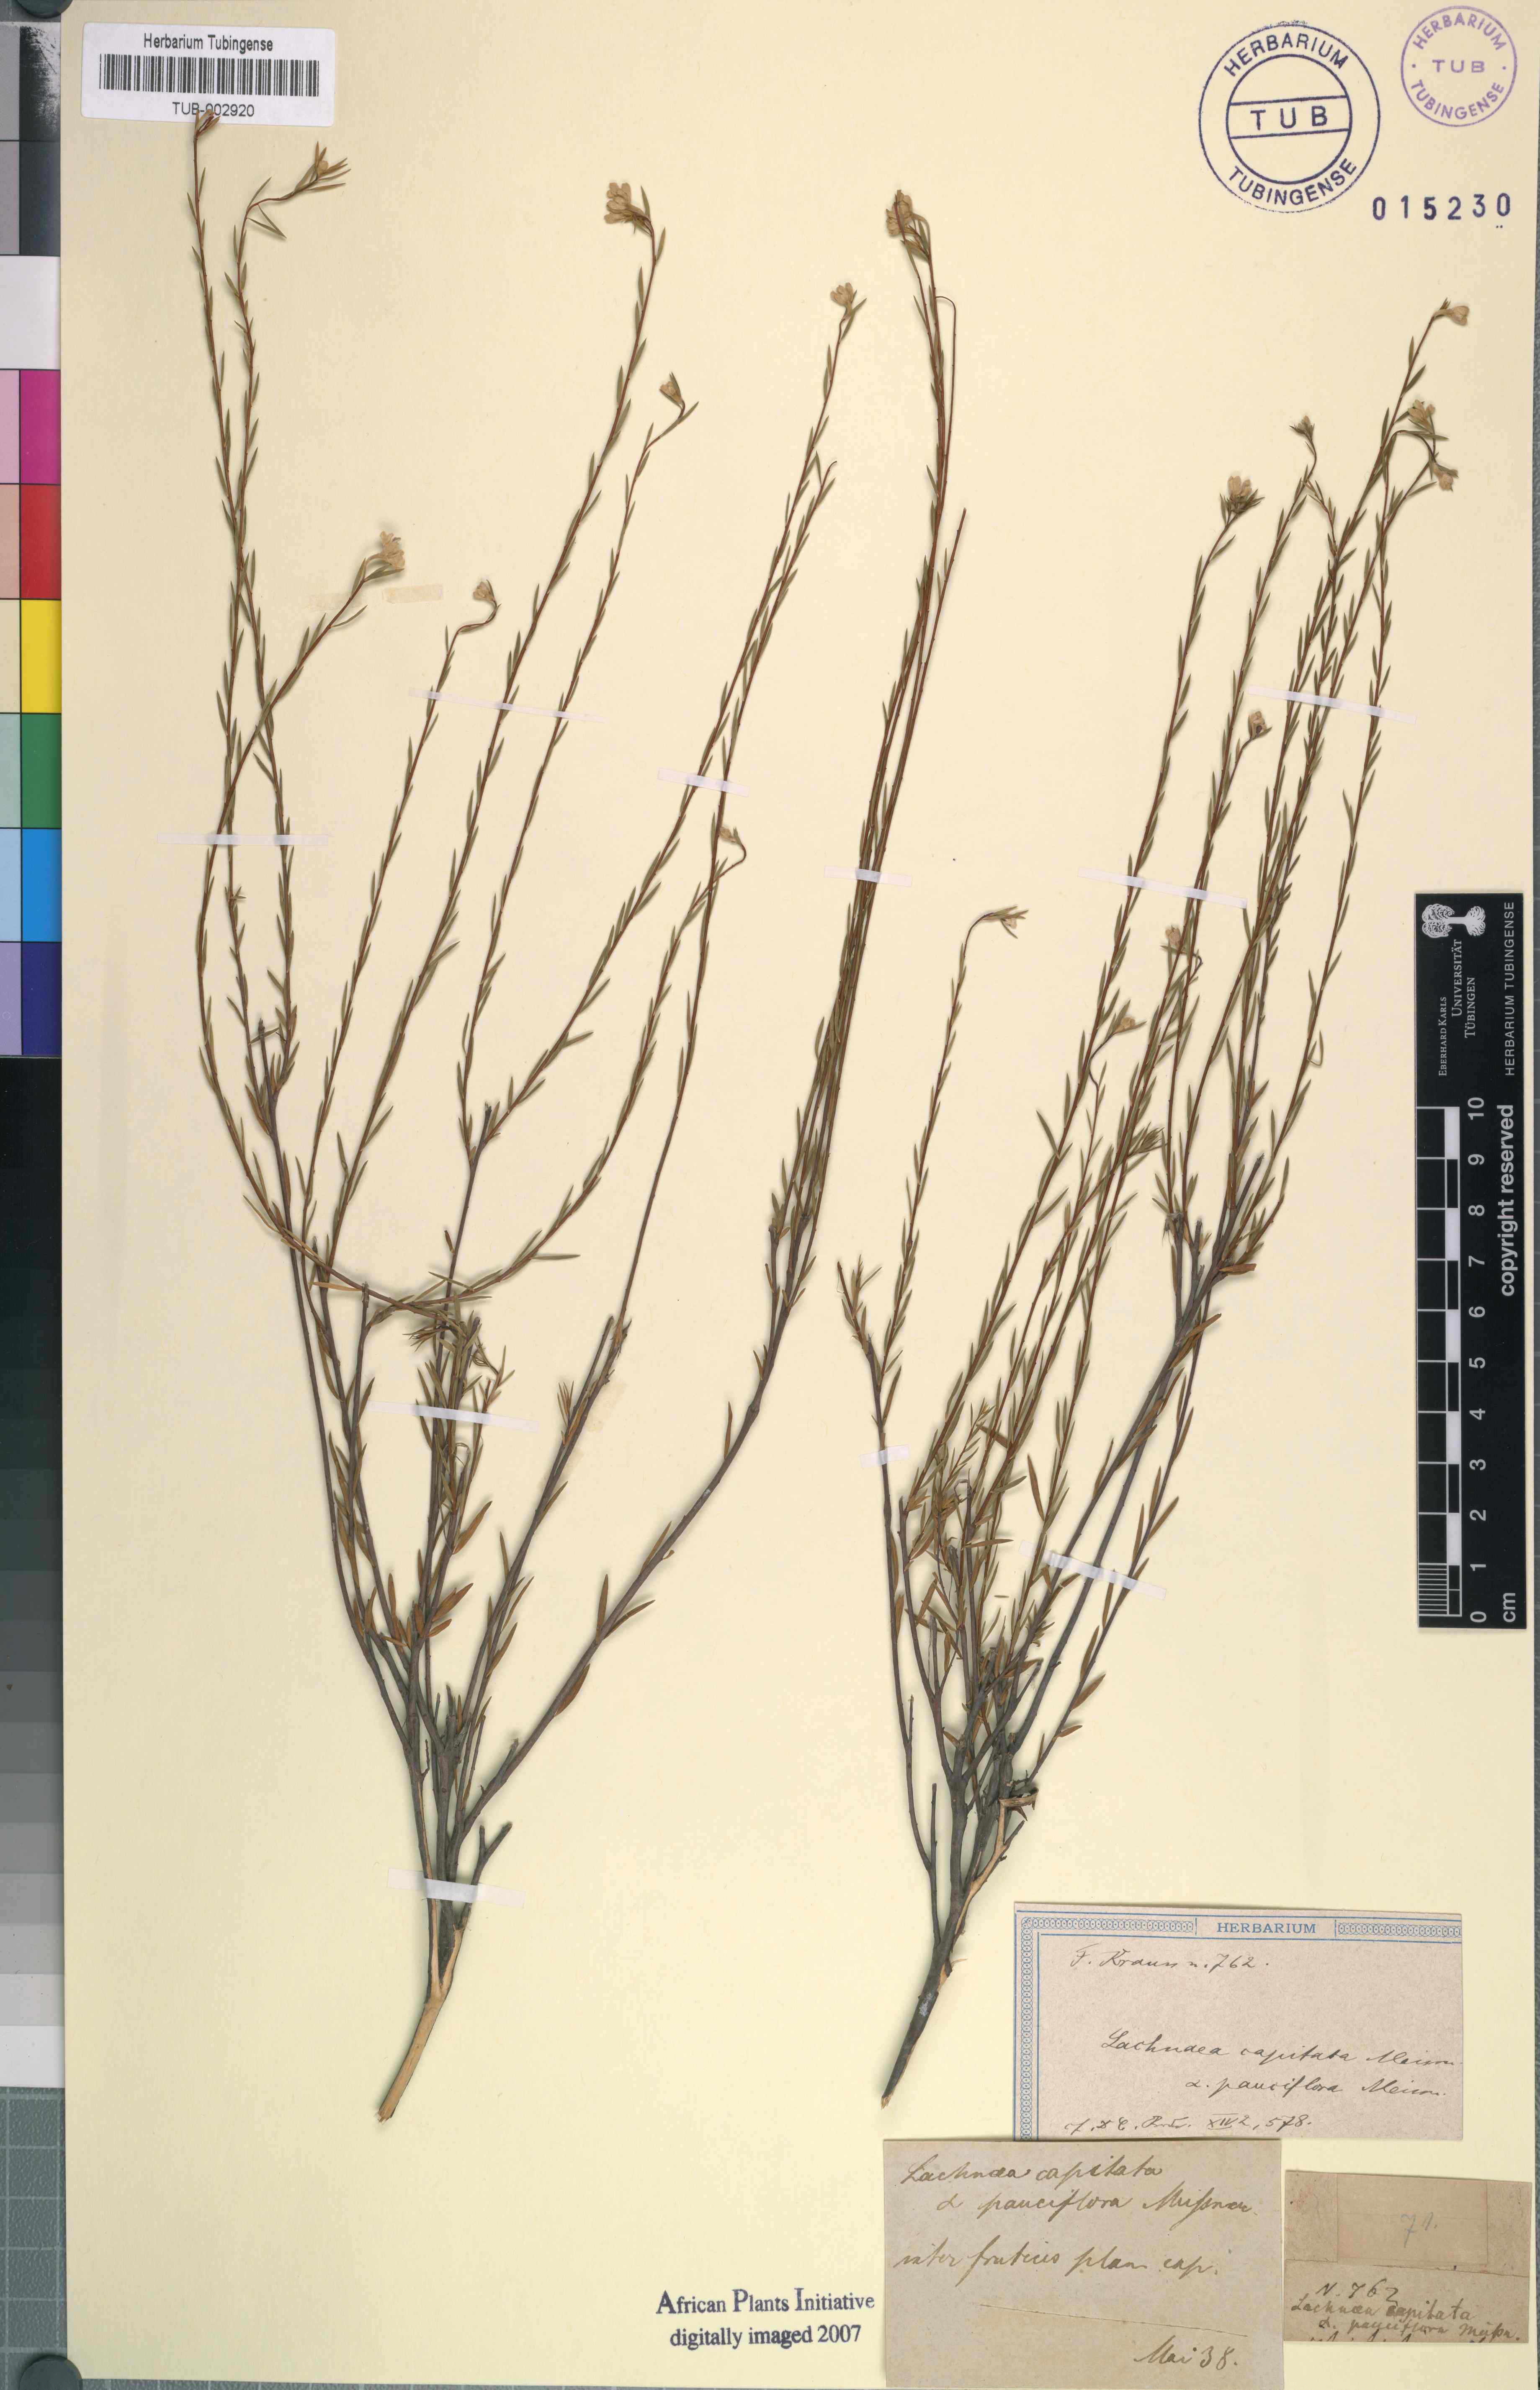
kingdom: Plantae
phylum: Tracheophyta
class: Magnoliopsida
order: Malvales
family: Thymelaeaceae
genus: Lachnaea
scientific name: Lachnaea capitata
